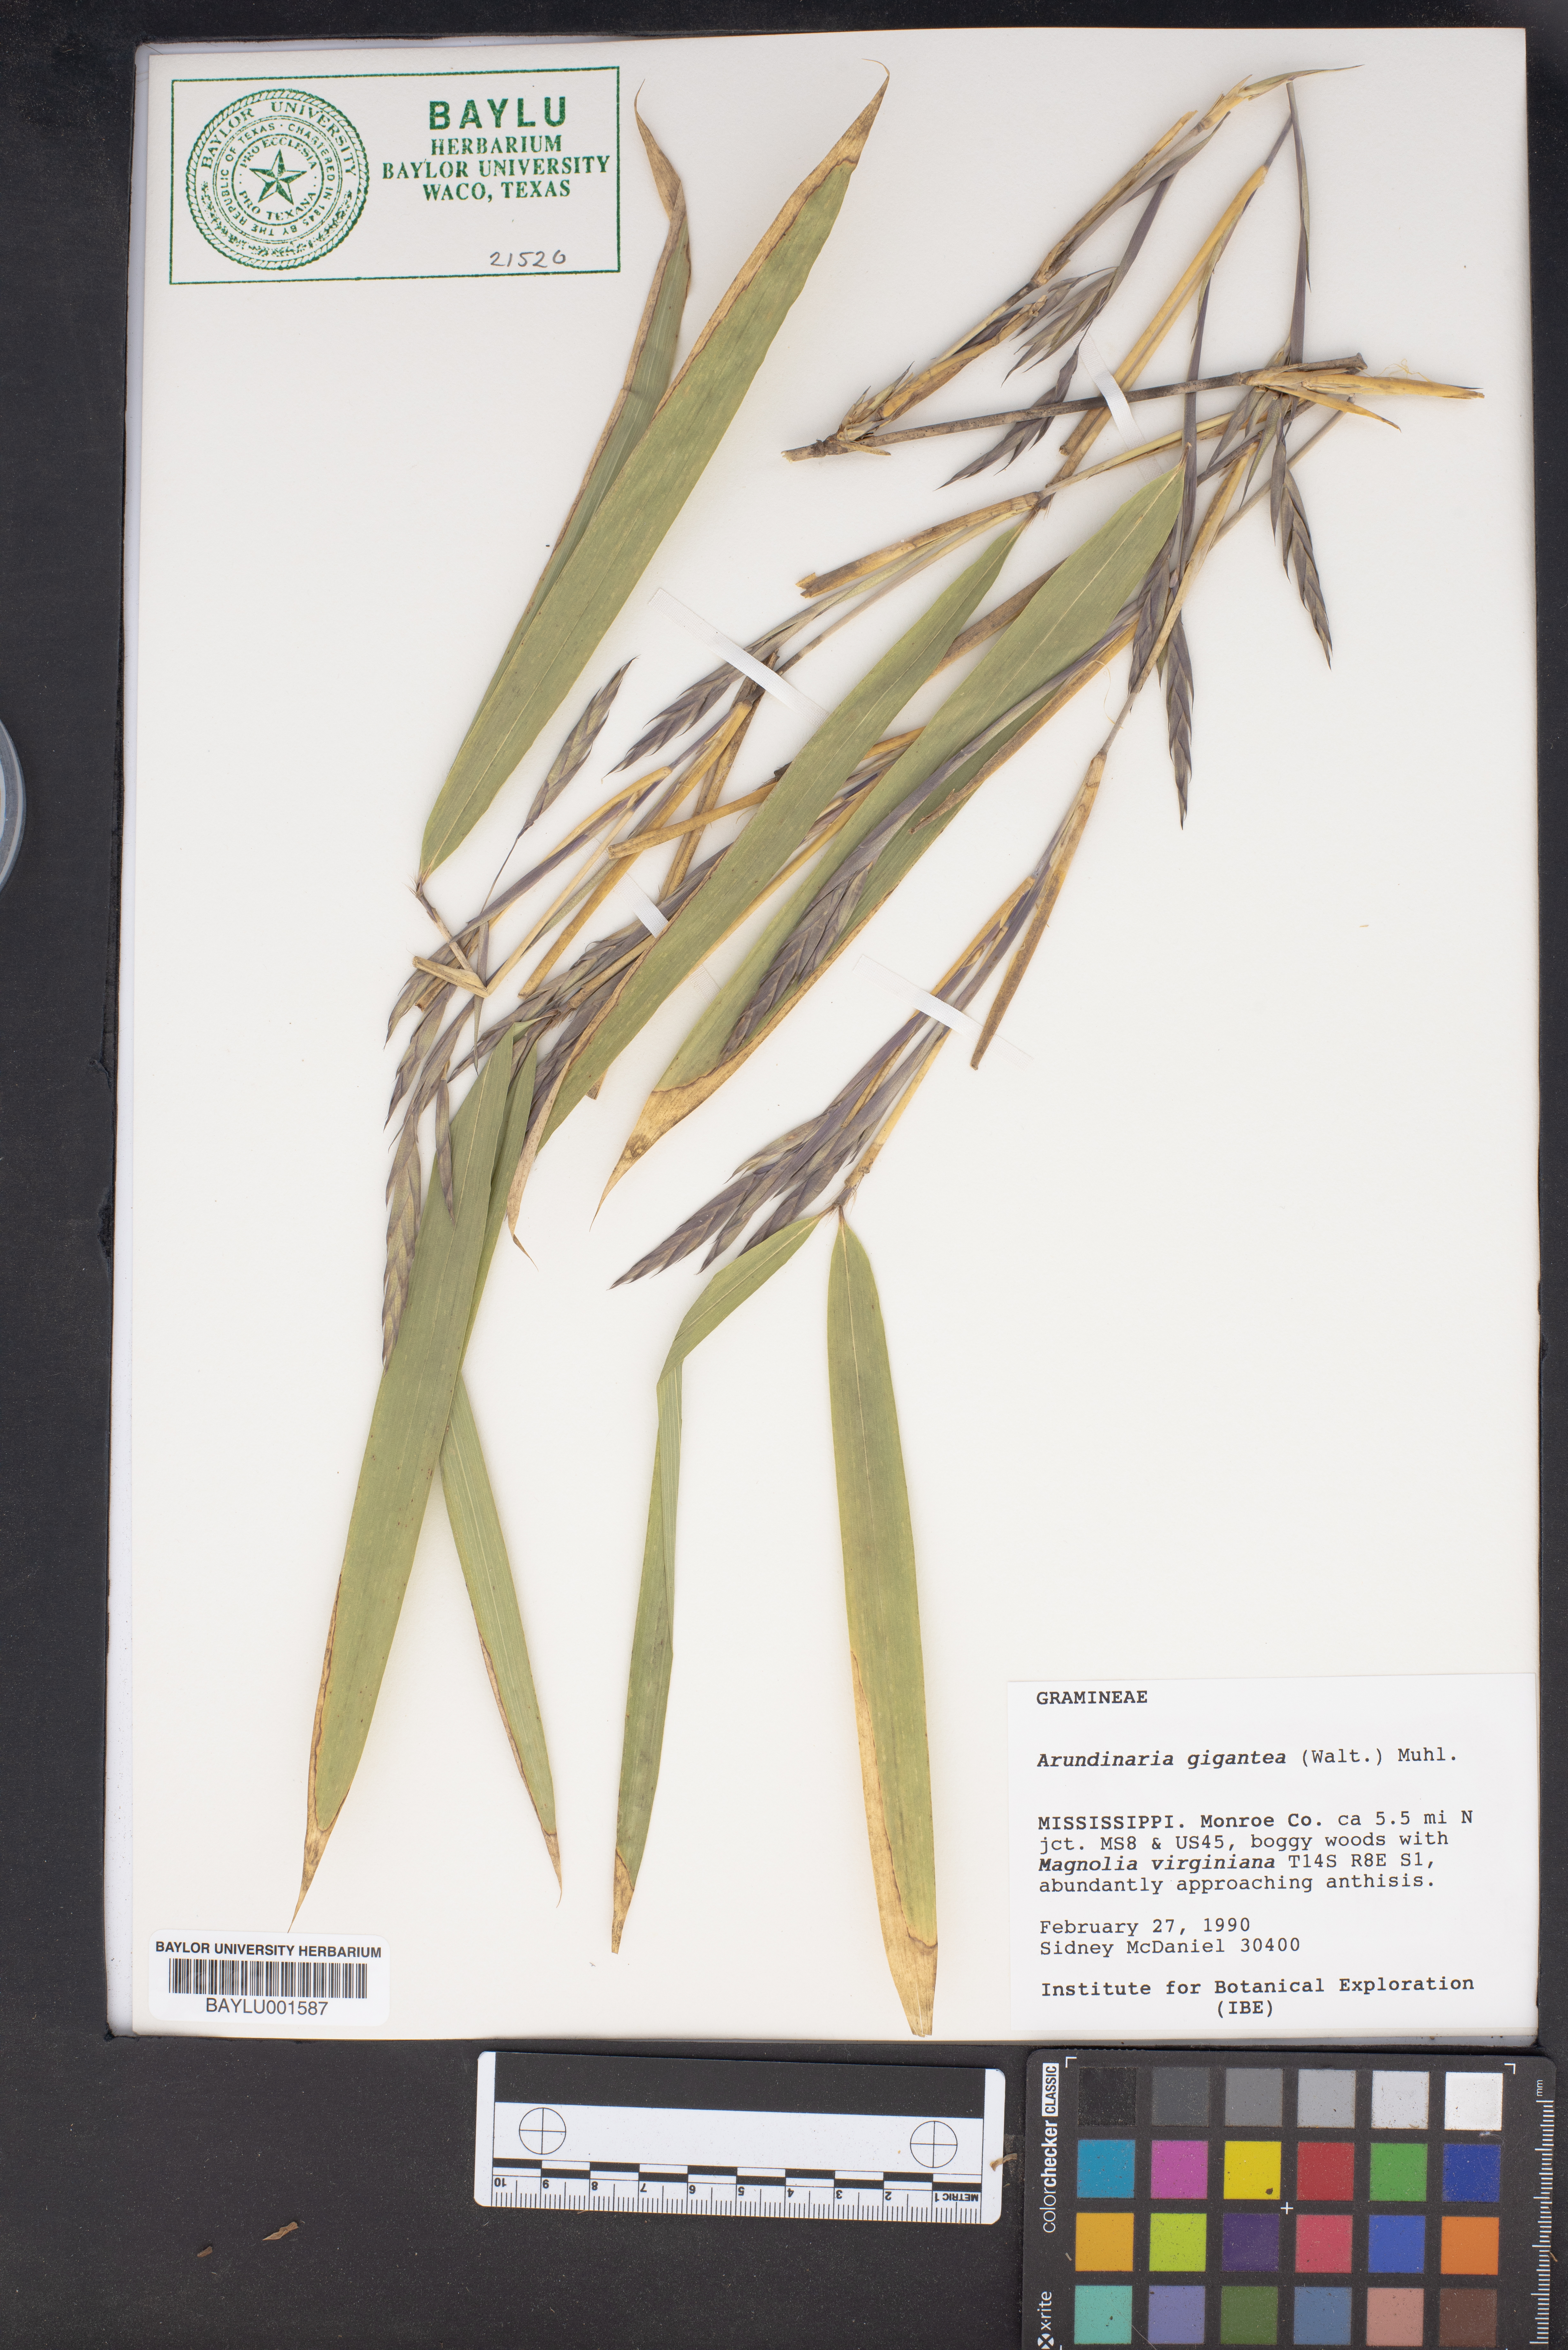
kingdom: Plantae
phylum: Tracheophyta
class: Liliopsida
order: Poales
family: Poaceae
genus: Arundinaria
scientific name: Arundinaria gigantea
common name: Giant cane
